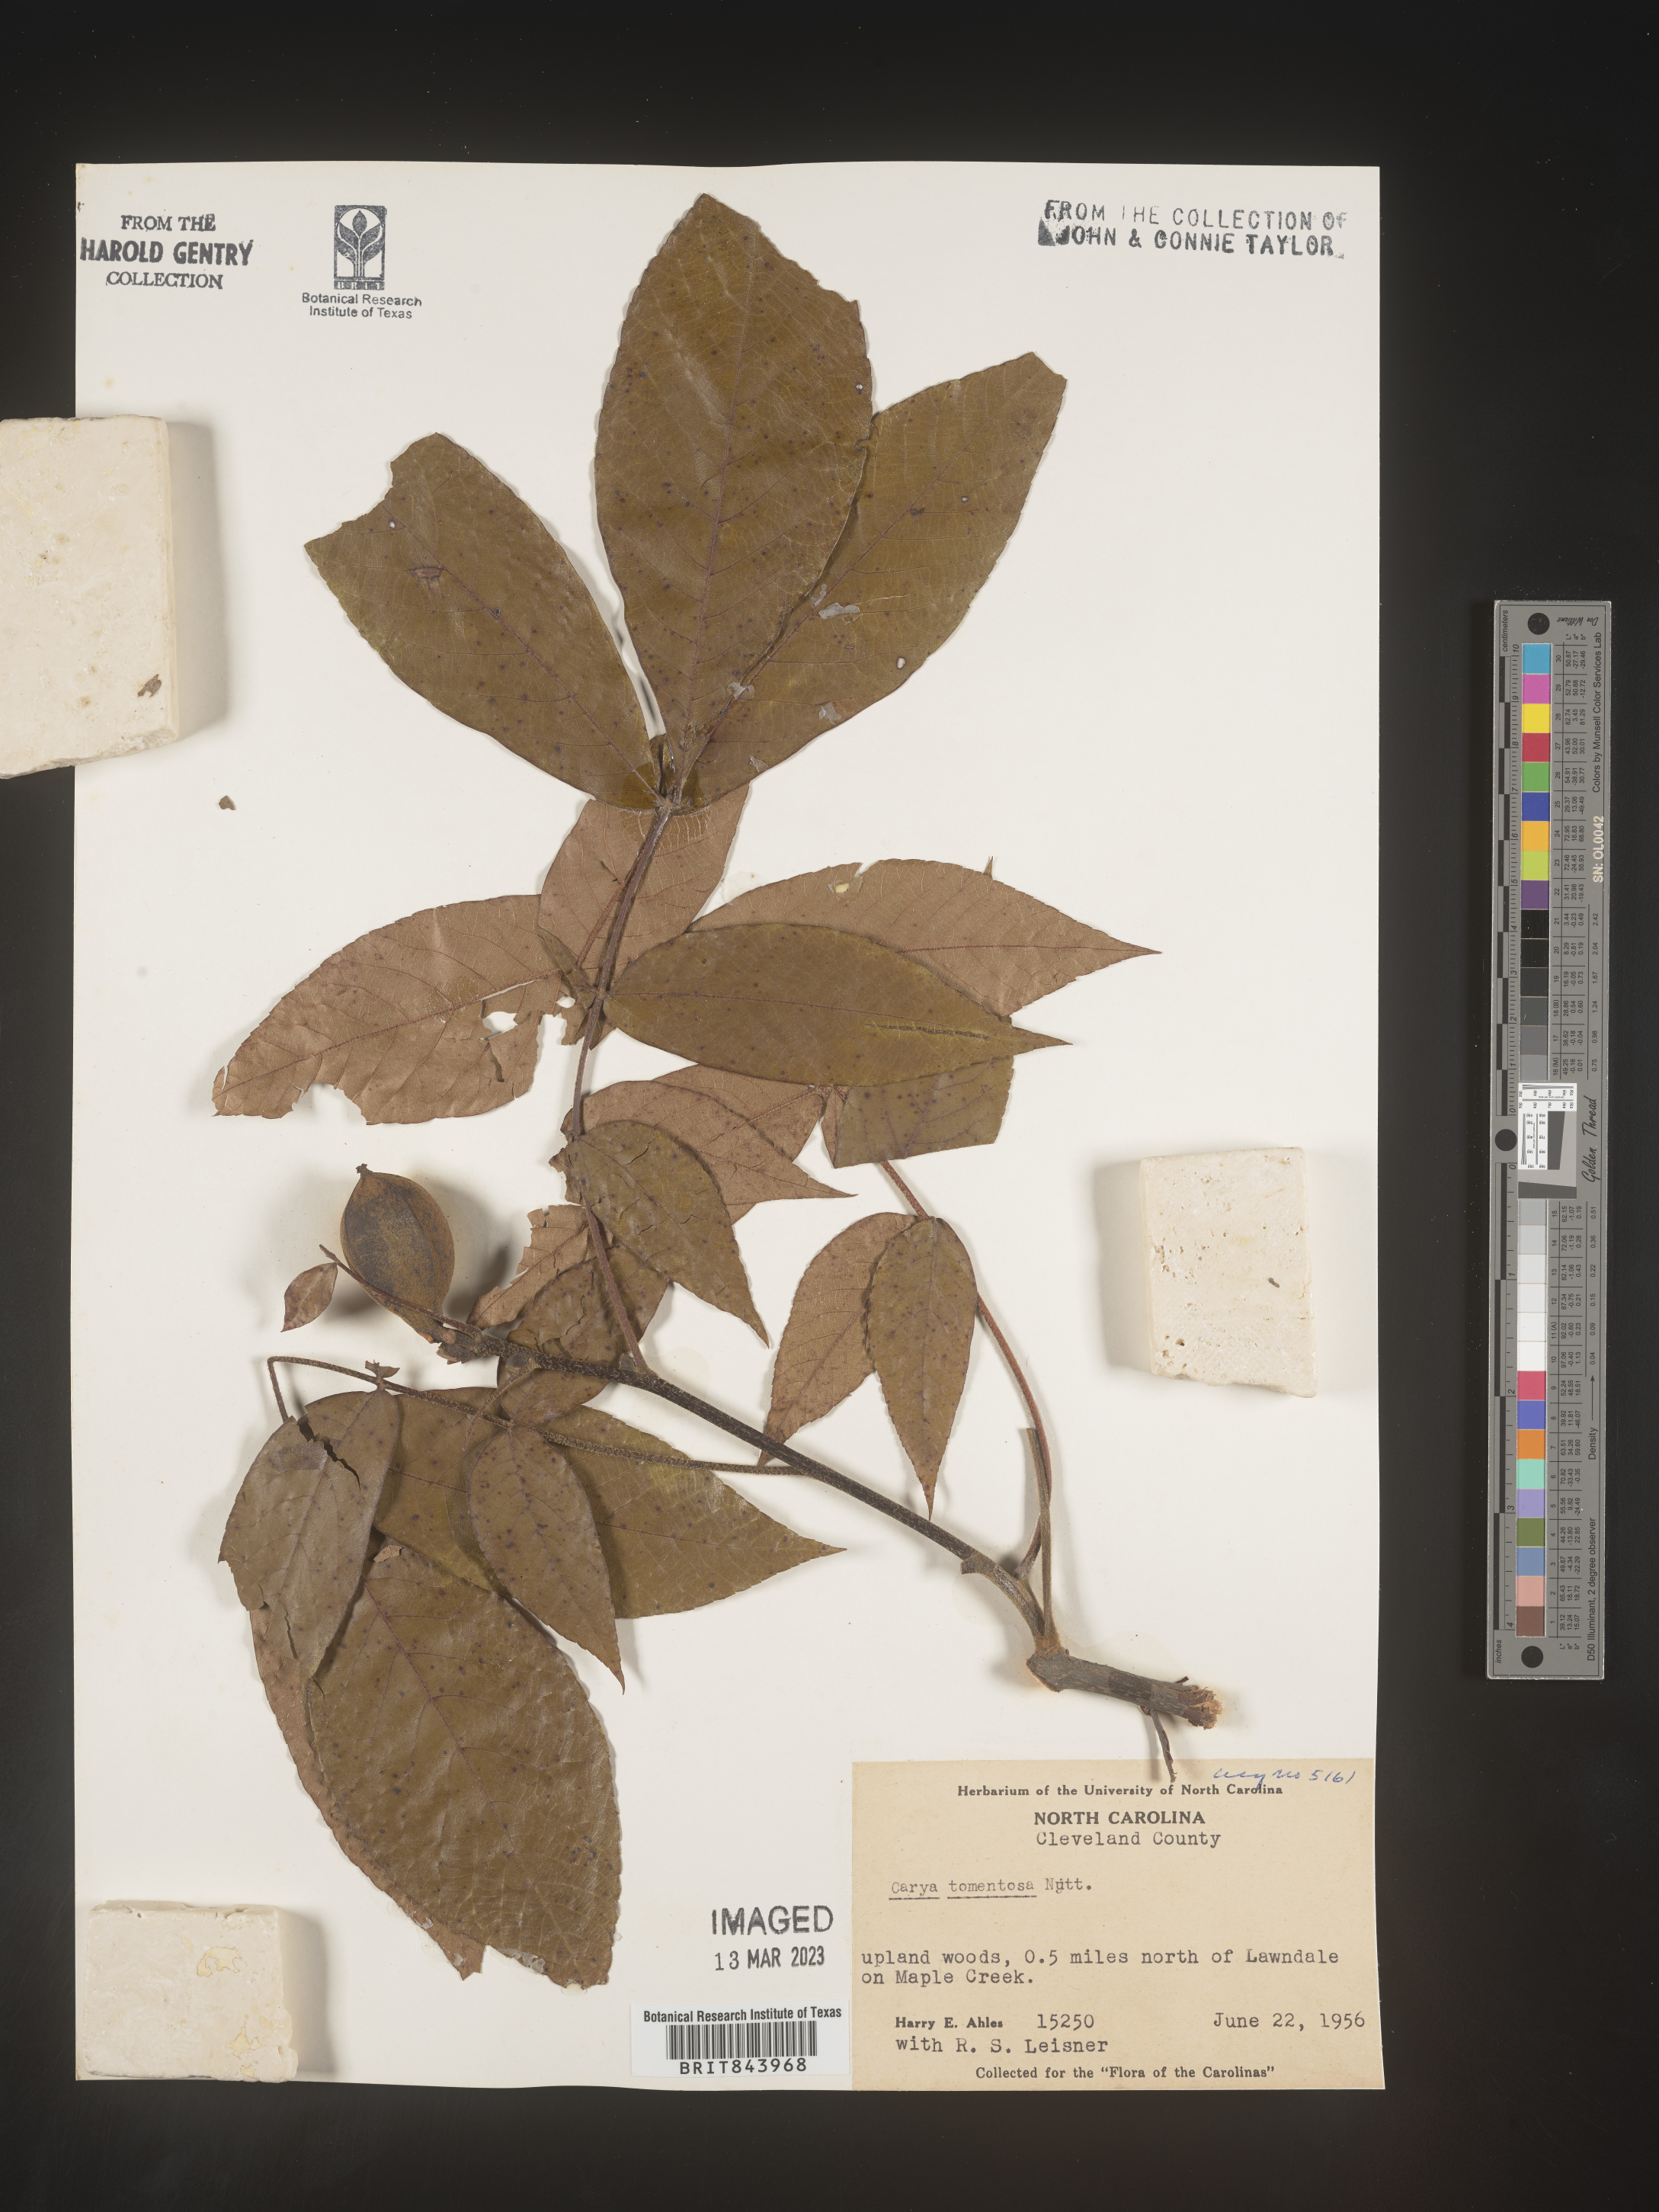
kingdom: Plantae
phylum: Tracheophyta
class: Magnoliopsida
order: Fagales
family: Juglandaceae
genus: Carya
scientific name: Carya alba
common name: Mockernut hickory
